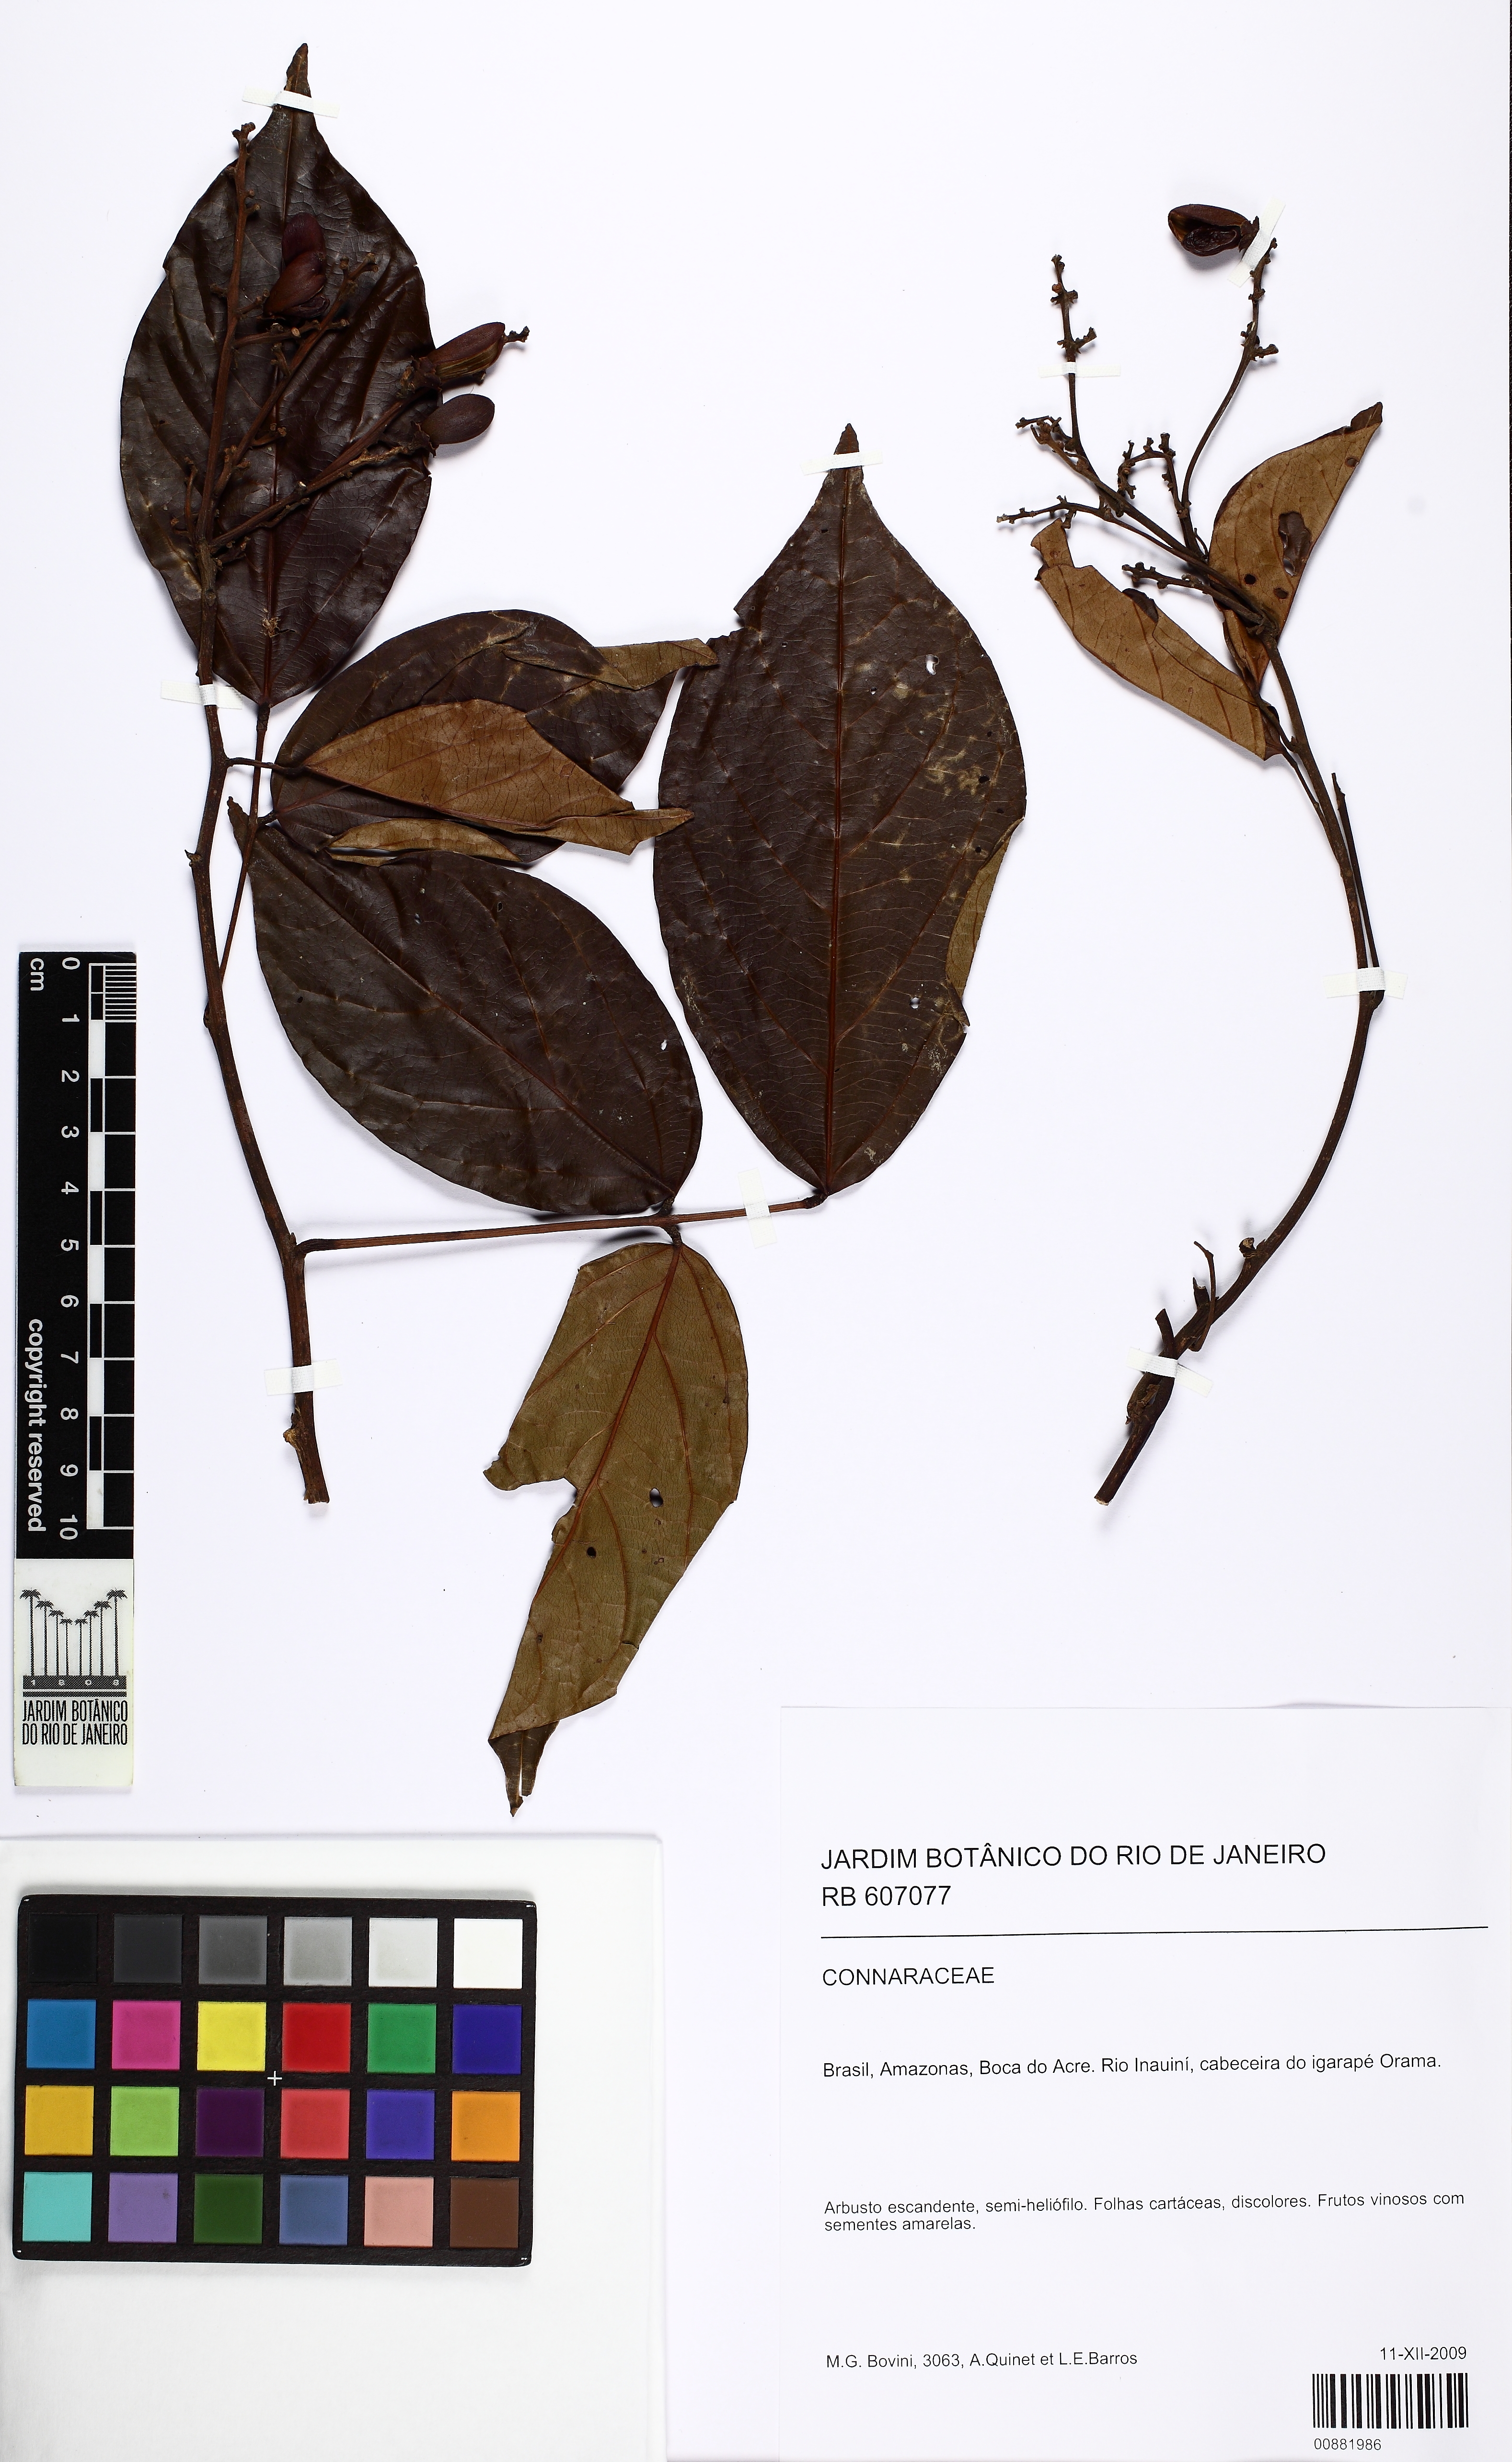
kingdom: Plantae
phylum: Tracheophyta
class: Magnoliopsida
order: Oxalidales
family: Connaraceae
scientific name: Connaraceae
